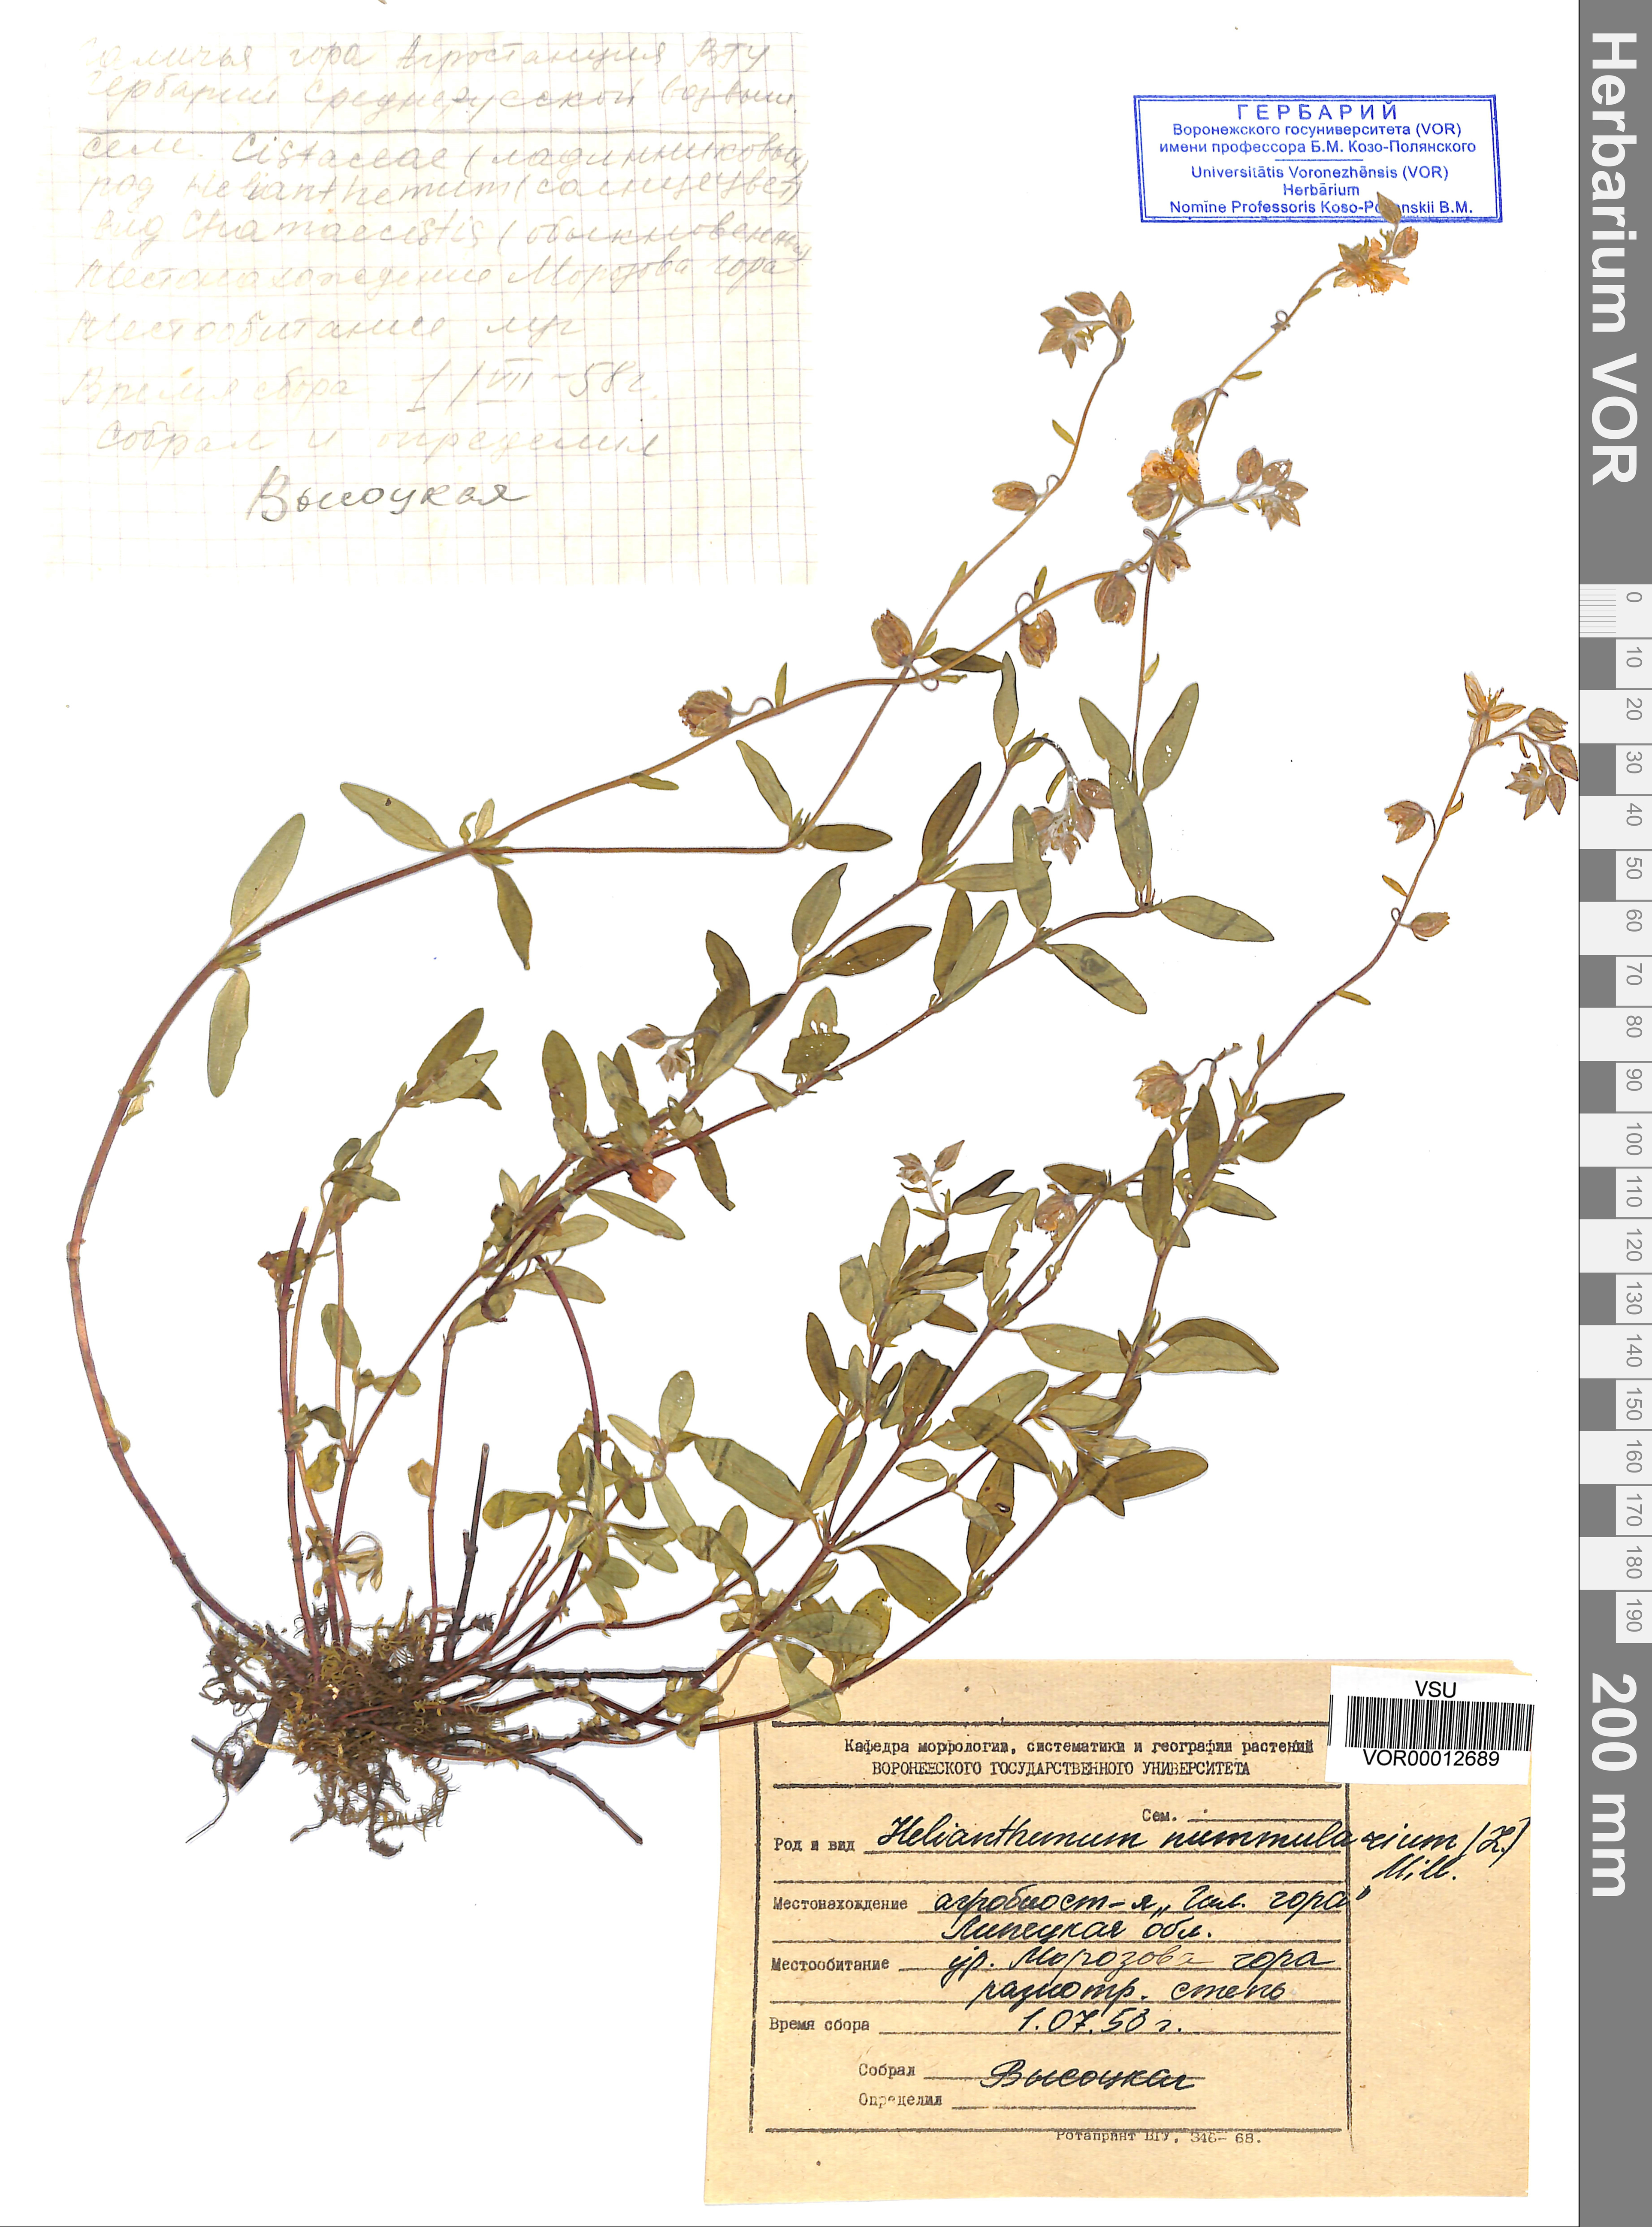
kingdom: Plantae
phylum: Tracheophyta
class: Magnoliopsida
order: Malvales
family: Cistaceae
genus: Helianthemum
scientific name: Helianthemum nummularium
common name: Common rock-rose
